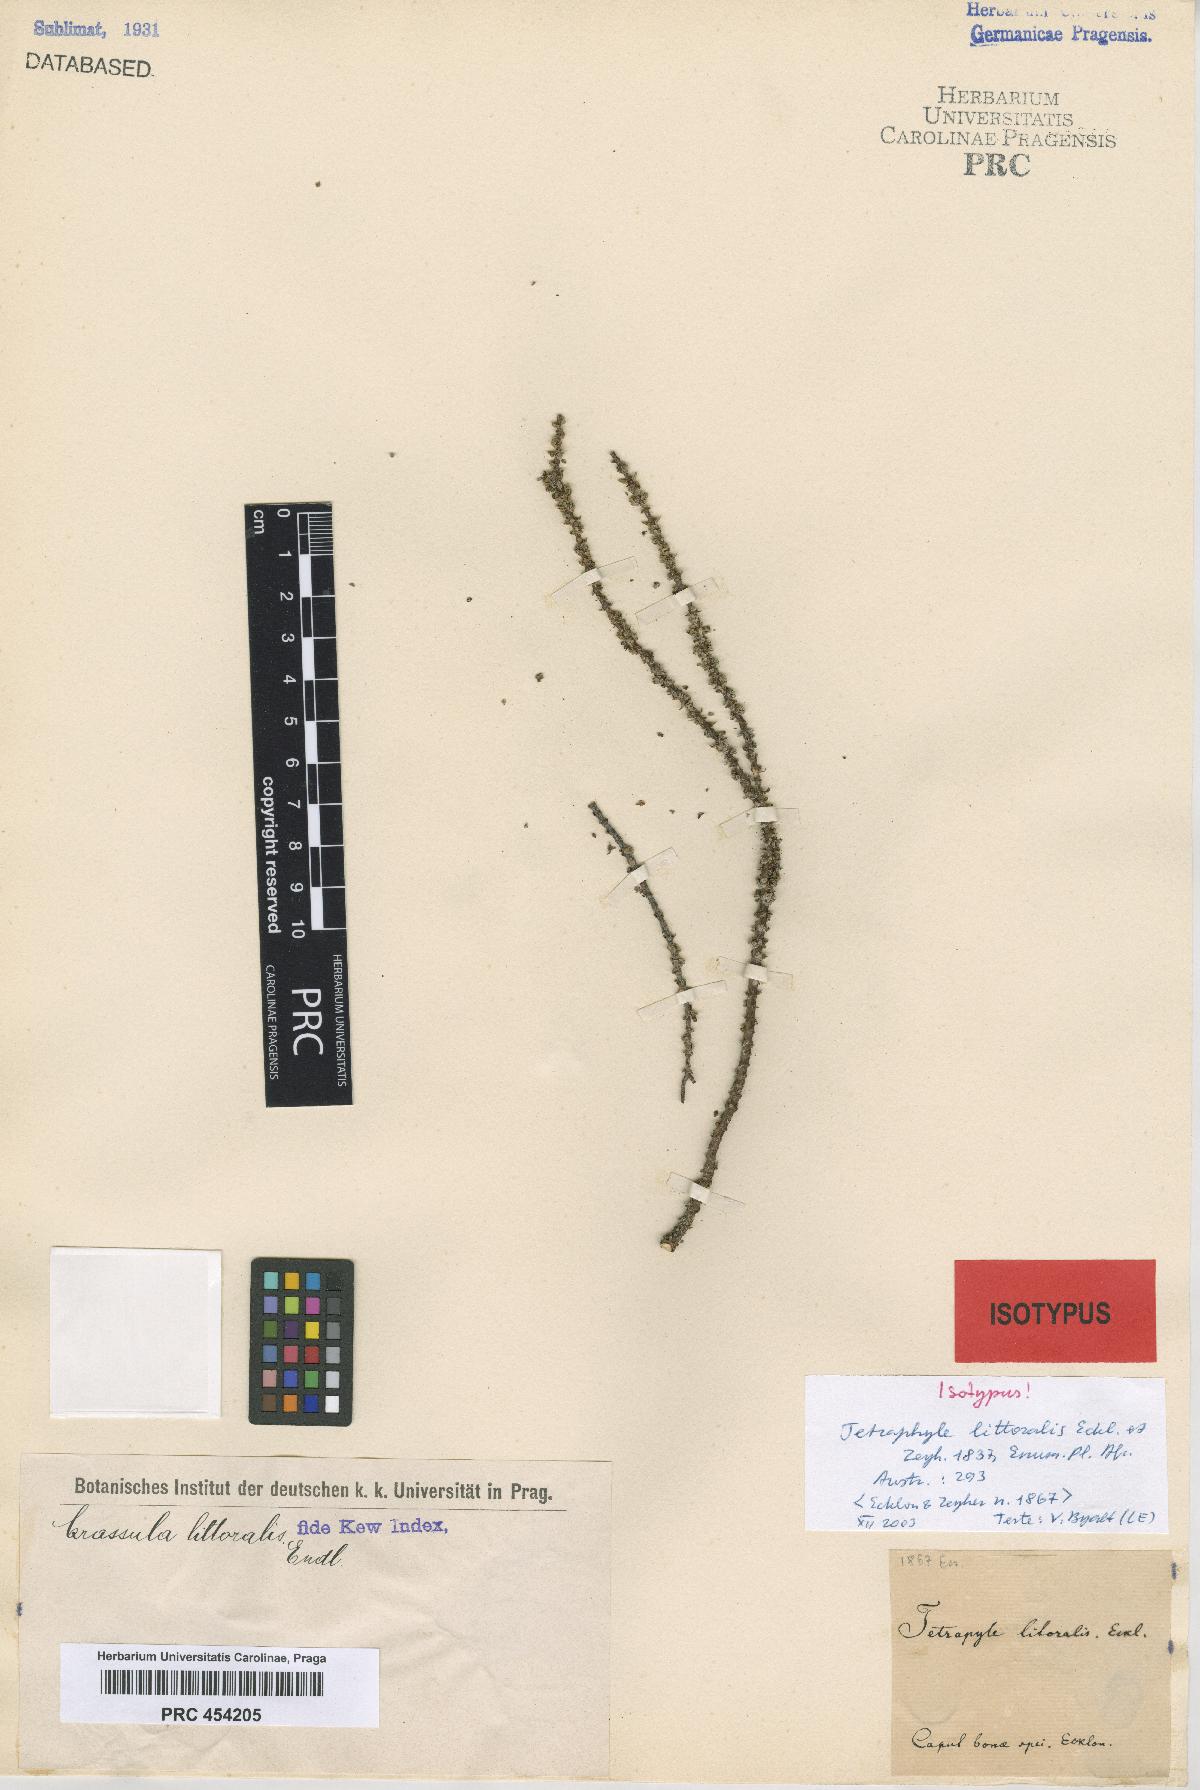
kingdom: Plantae
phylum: Tracheophyta
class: Magnoliopsida
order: Saxifragales
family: Crassulaceae
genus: Crassula
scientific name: Crassula muscosa
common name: Toy-cypress
